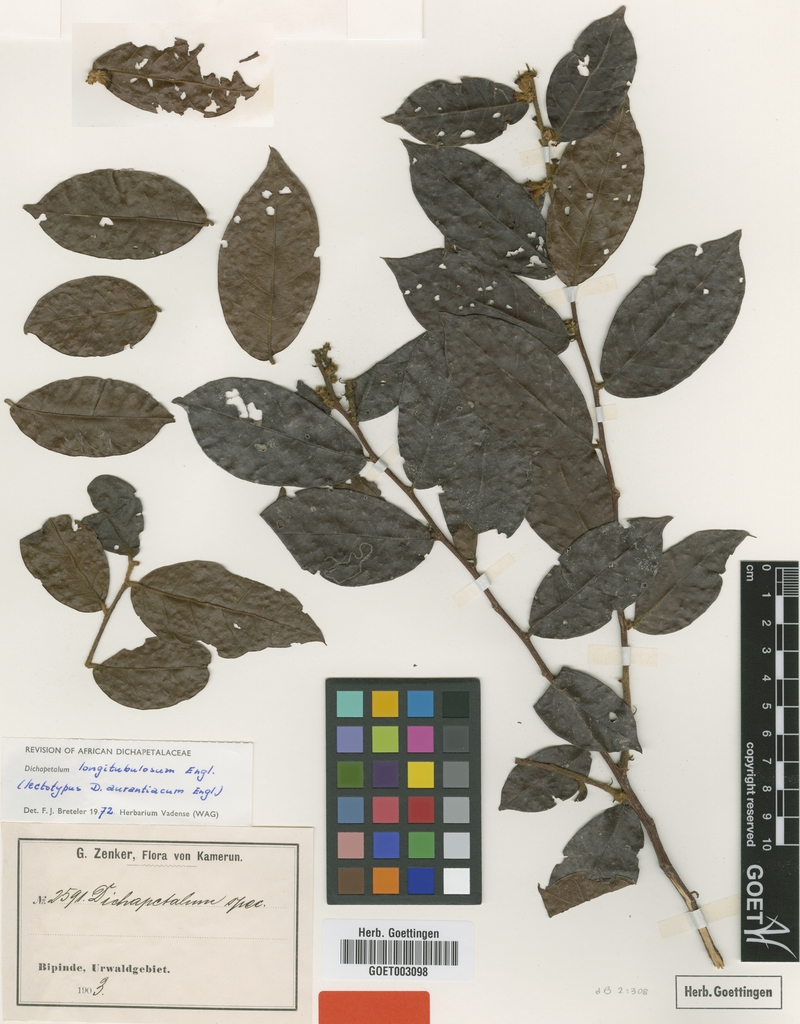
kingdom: Plantae
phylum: Tracheophyta
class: Magnoliopsida
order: Malpighiales
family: Dichapetalaceae
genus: Dichapetalum
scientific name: Dichapetalum heudelotii
